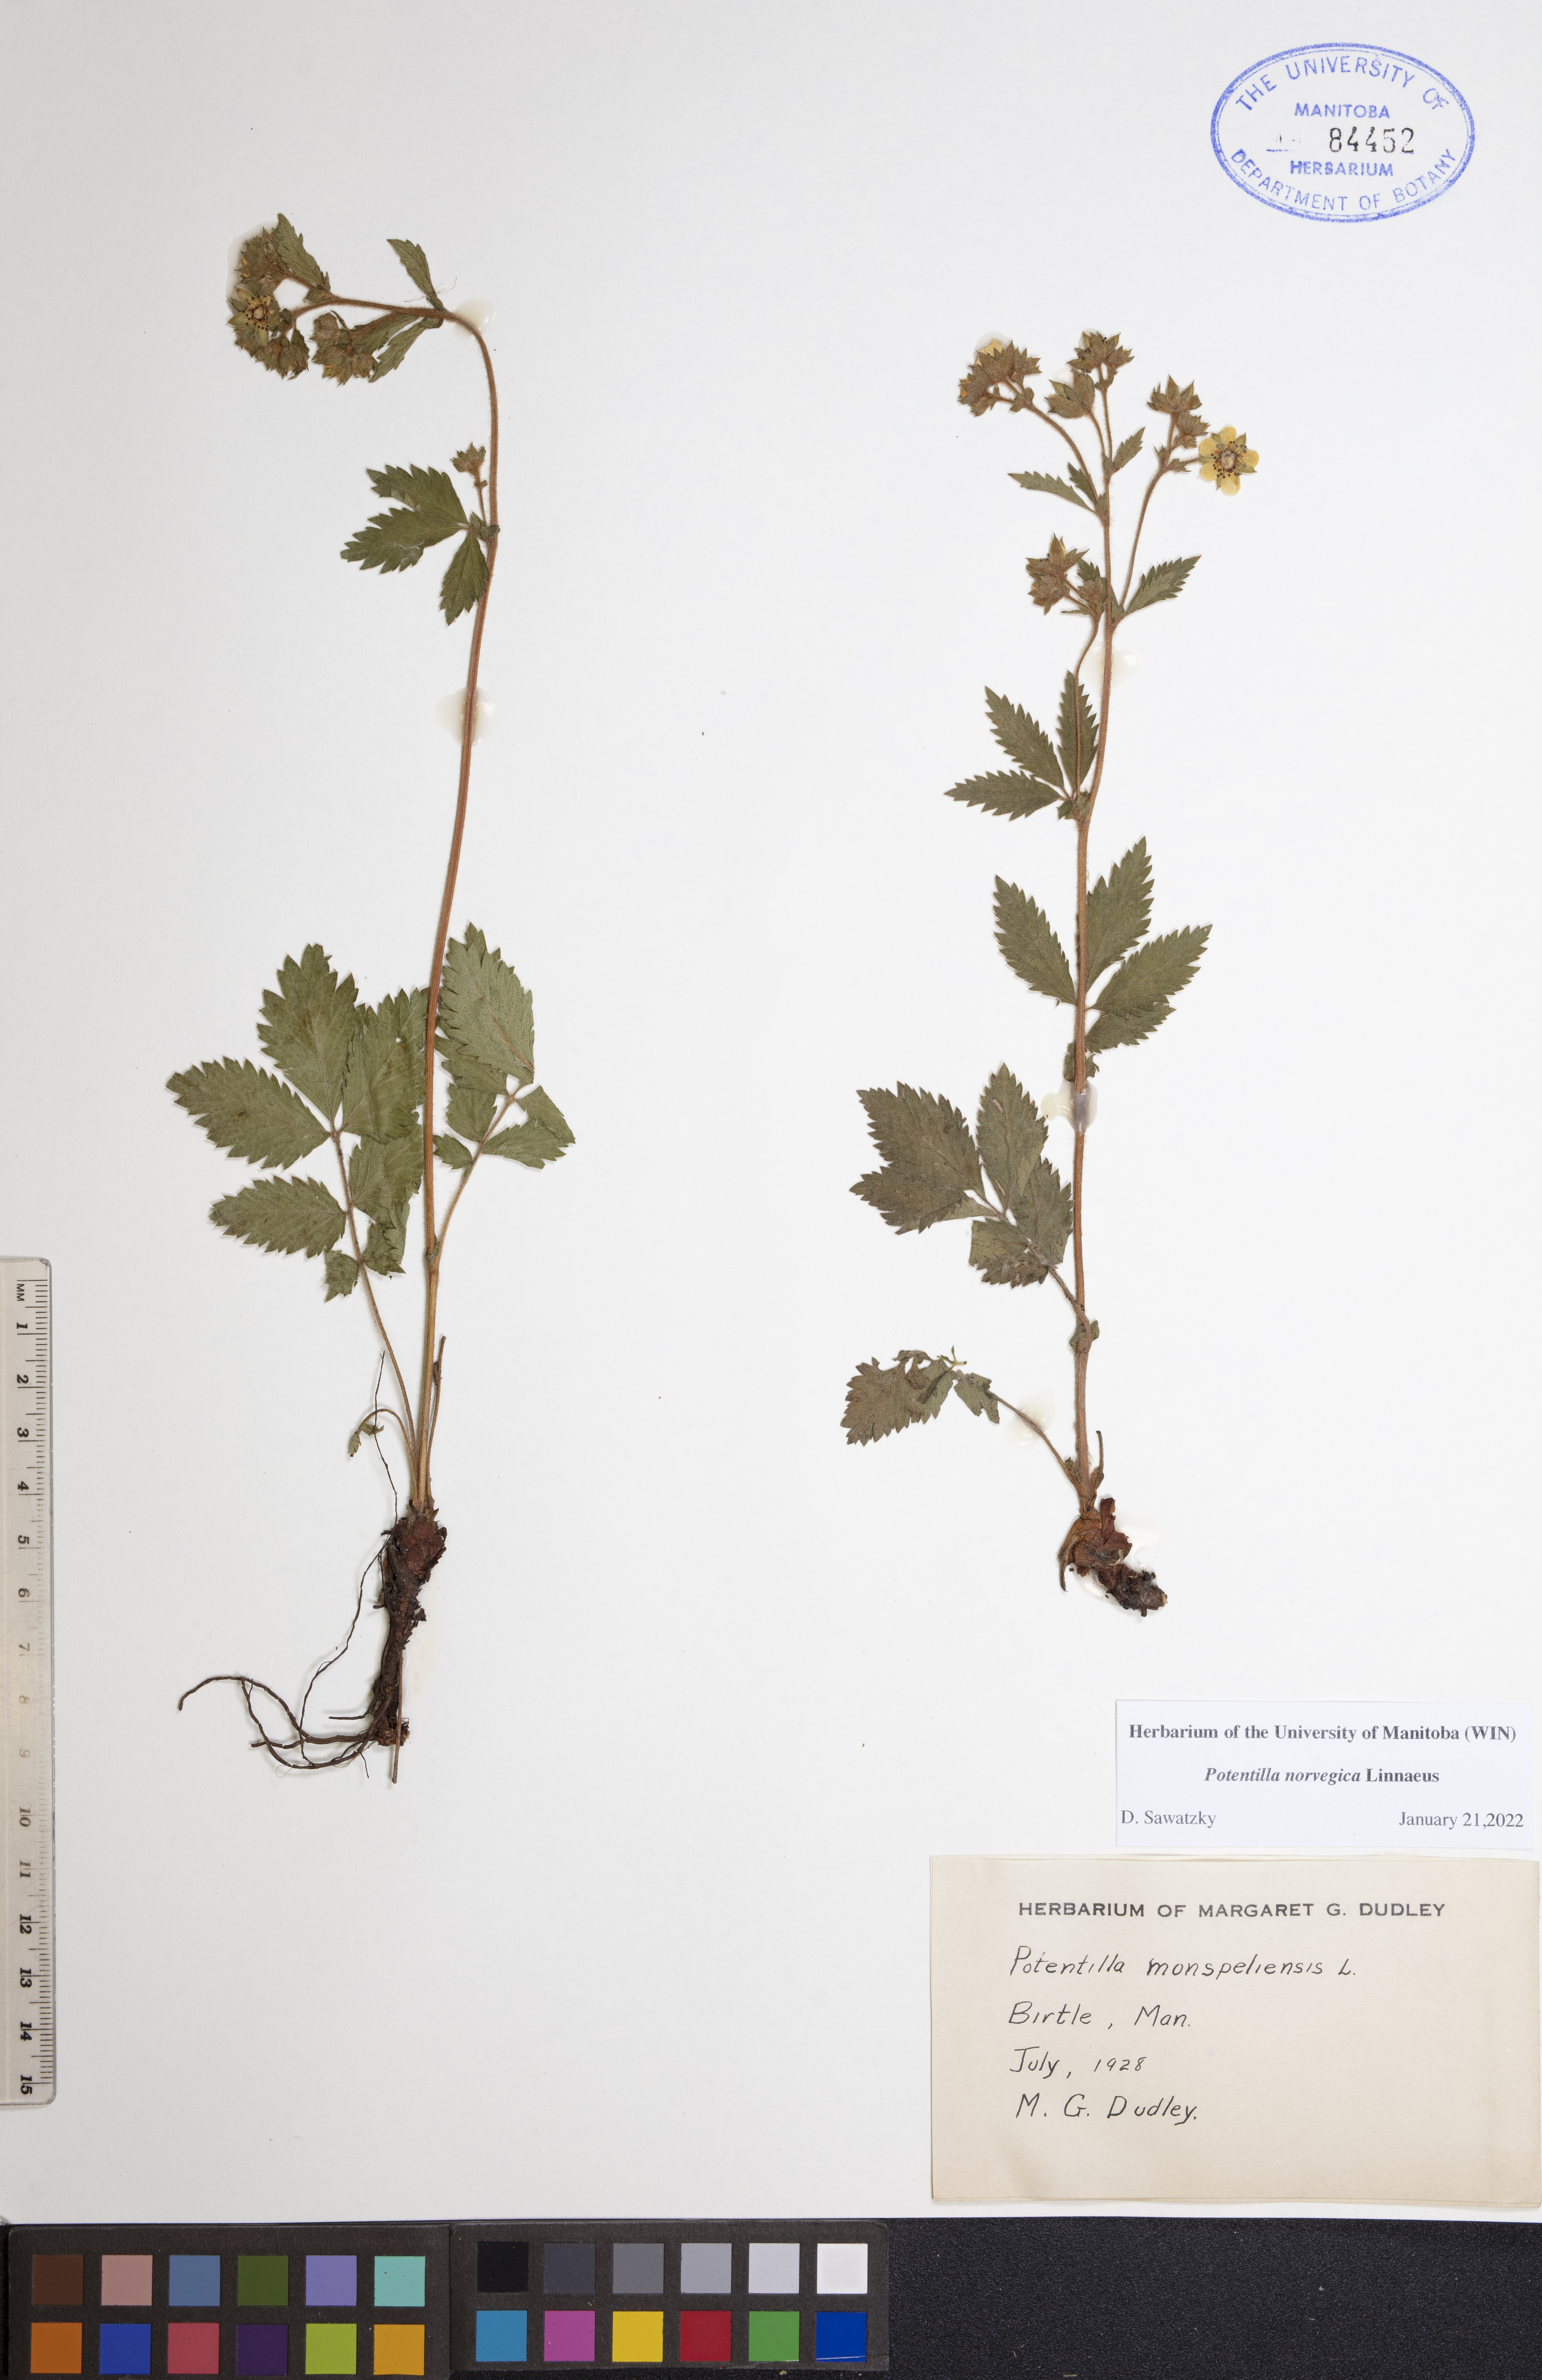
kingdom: Plantae
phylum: Tracheophyta
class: Magnoliopsida
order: Rosales
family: Rosaceae
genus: Potentilla
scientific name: Potentilla norvegica
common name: Ternate-leaved cinquefoil
